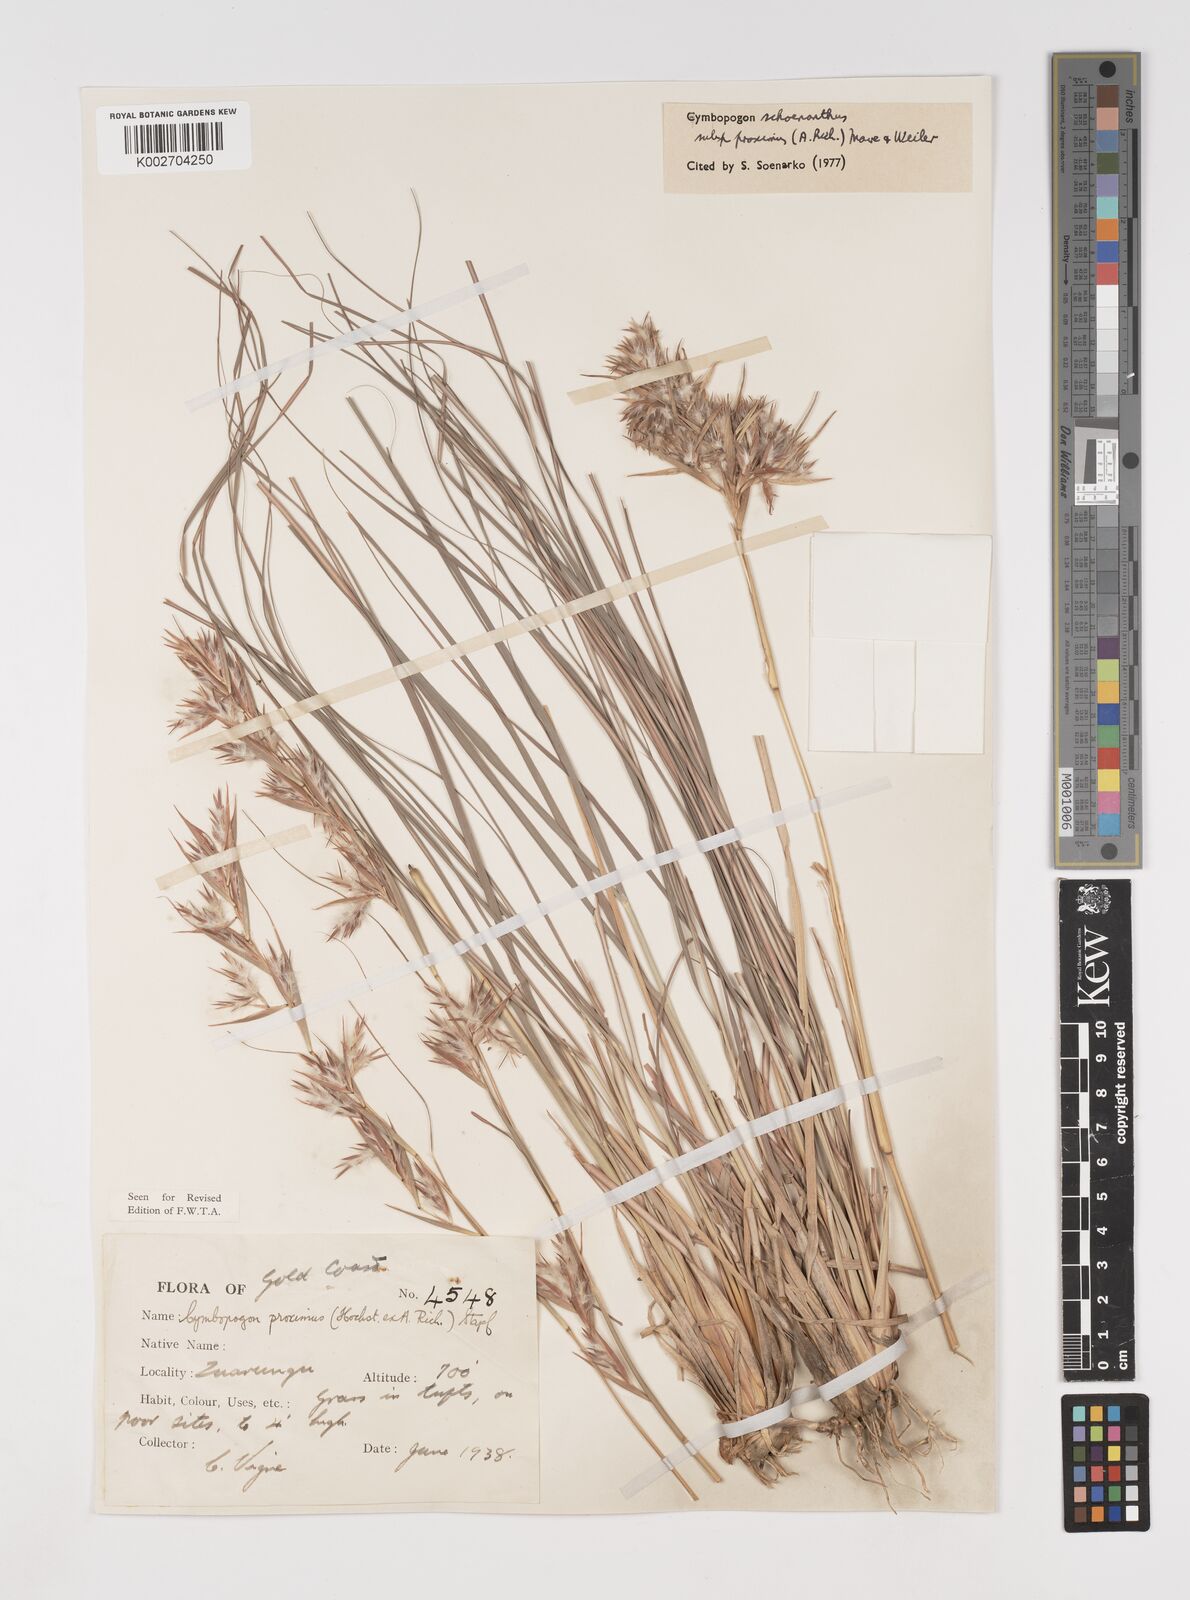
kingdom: Plantae
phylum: Tracheophyta
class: Liliopsida
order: Poales
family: Poaceae
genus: Cymbopogon
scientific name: Cymbopogon schoenanthus
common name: Geranium grass
